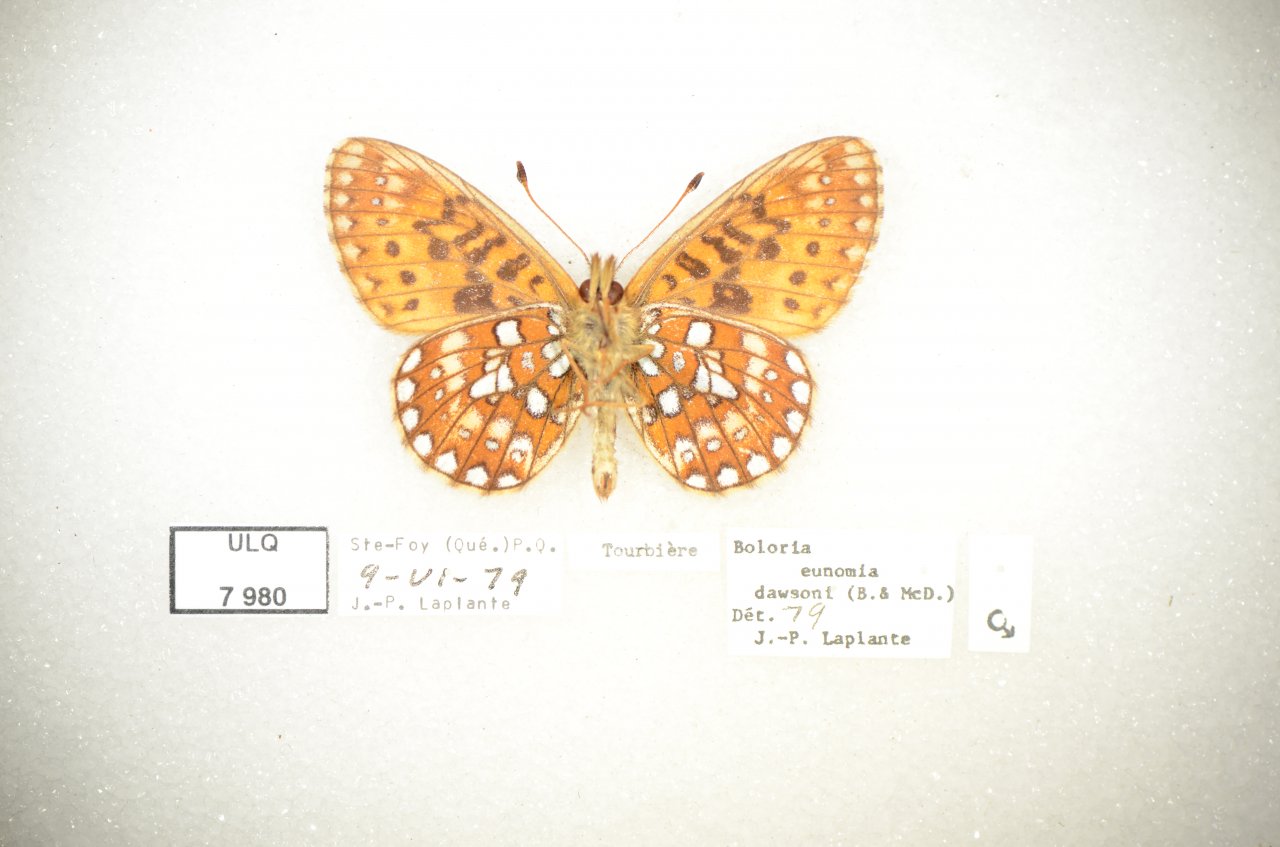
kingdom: Animalia
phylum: Arthropoda
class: Insecta
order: Lepidoptera
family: Nymphalidae
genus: Boloria
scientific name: Boloria eunomia
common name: Bog Fritillary
